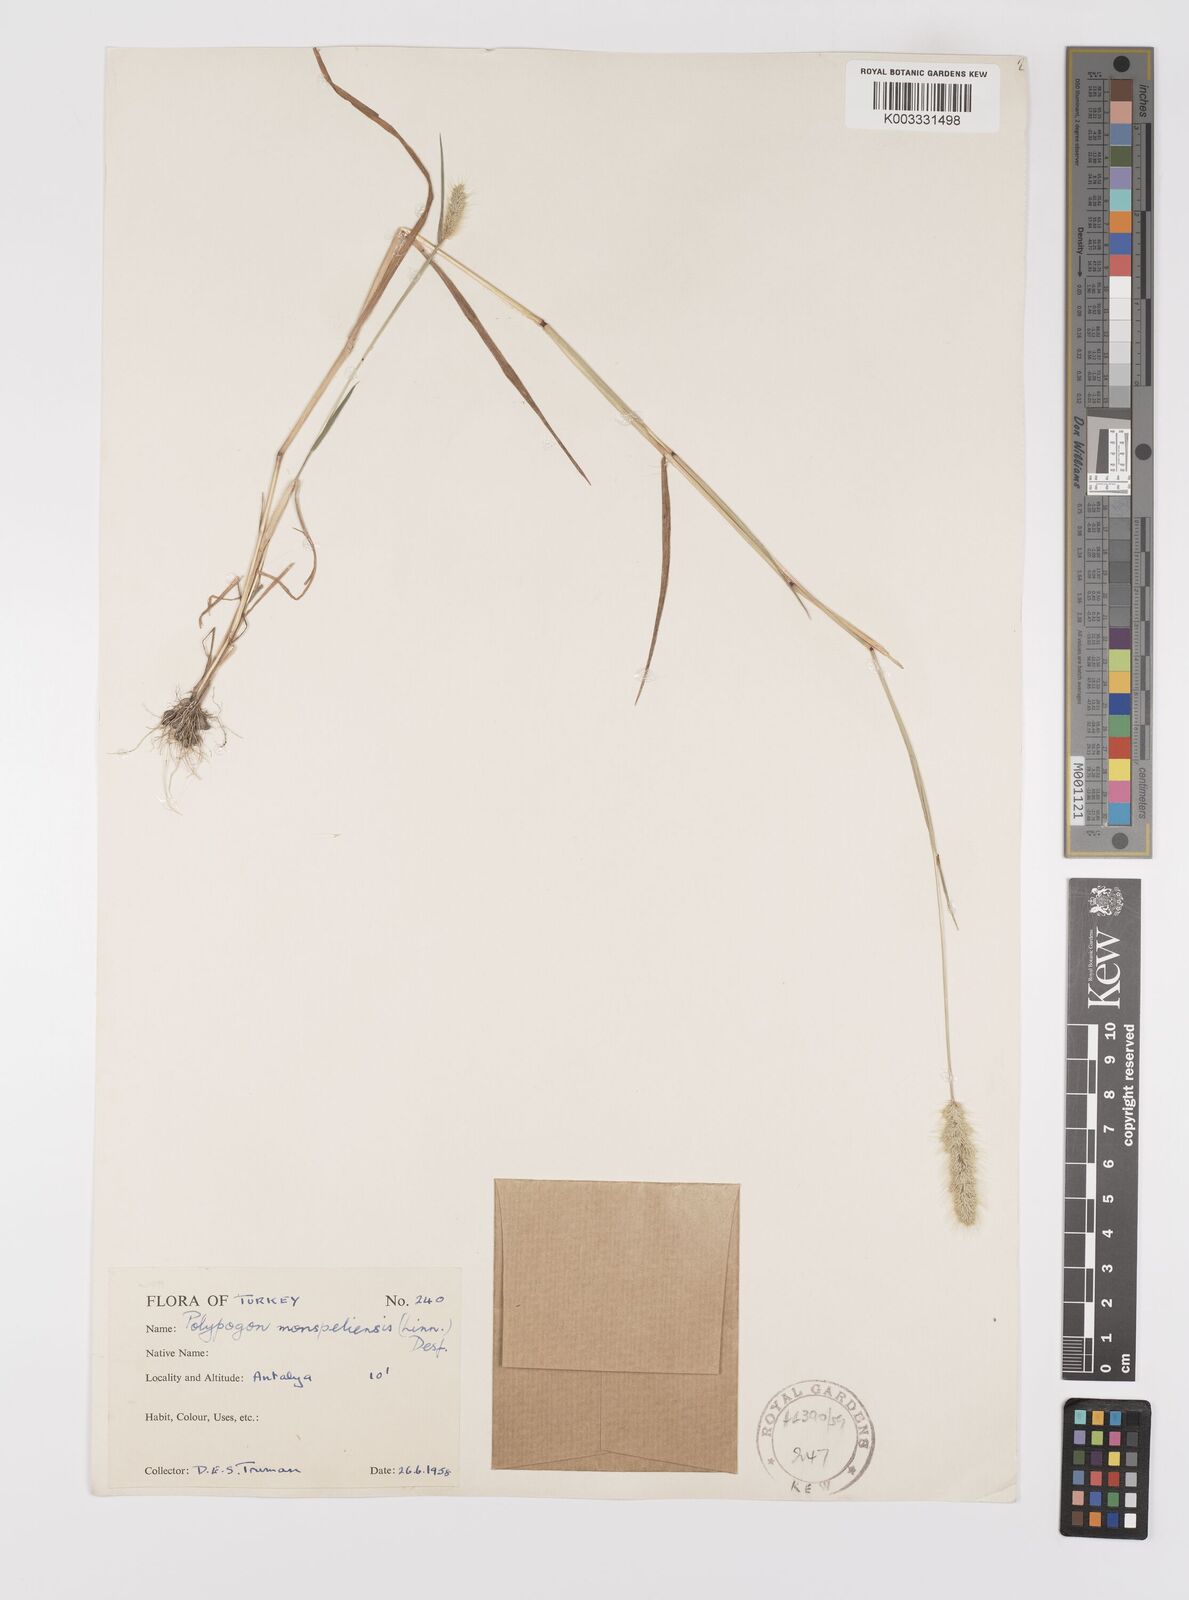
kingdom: Plantae
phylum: Tracheophyta
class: Liliopsida
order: Poales
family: Poaceae
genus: Polypogon
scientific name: Polypogon monspeliensis
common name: Annual rabbitsfoot grass
